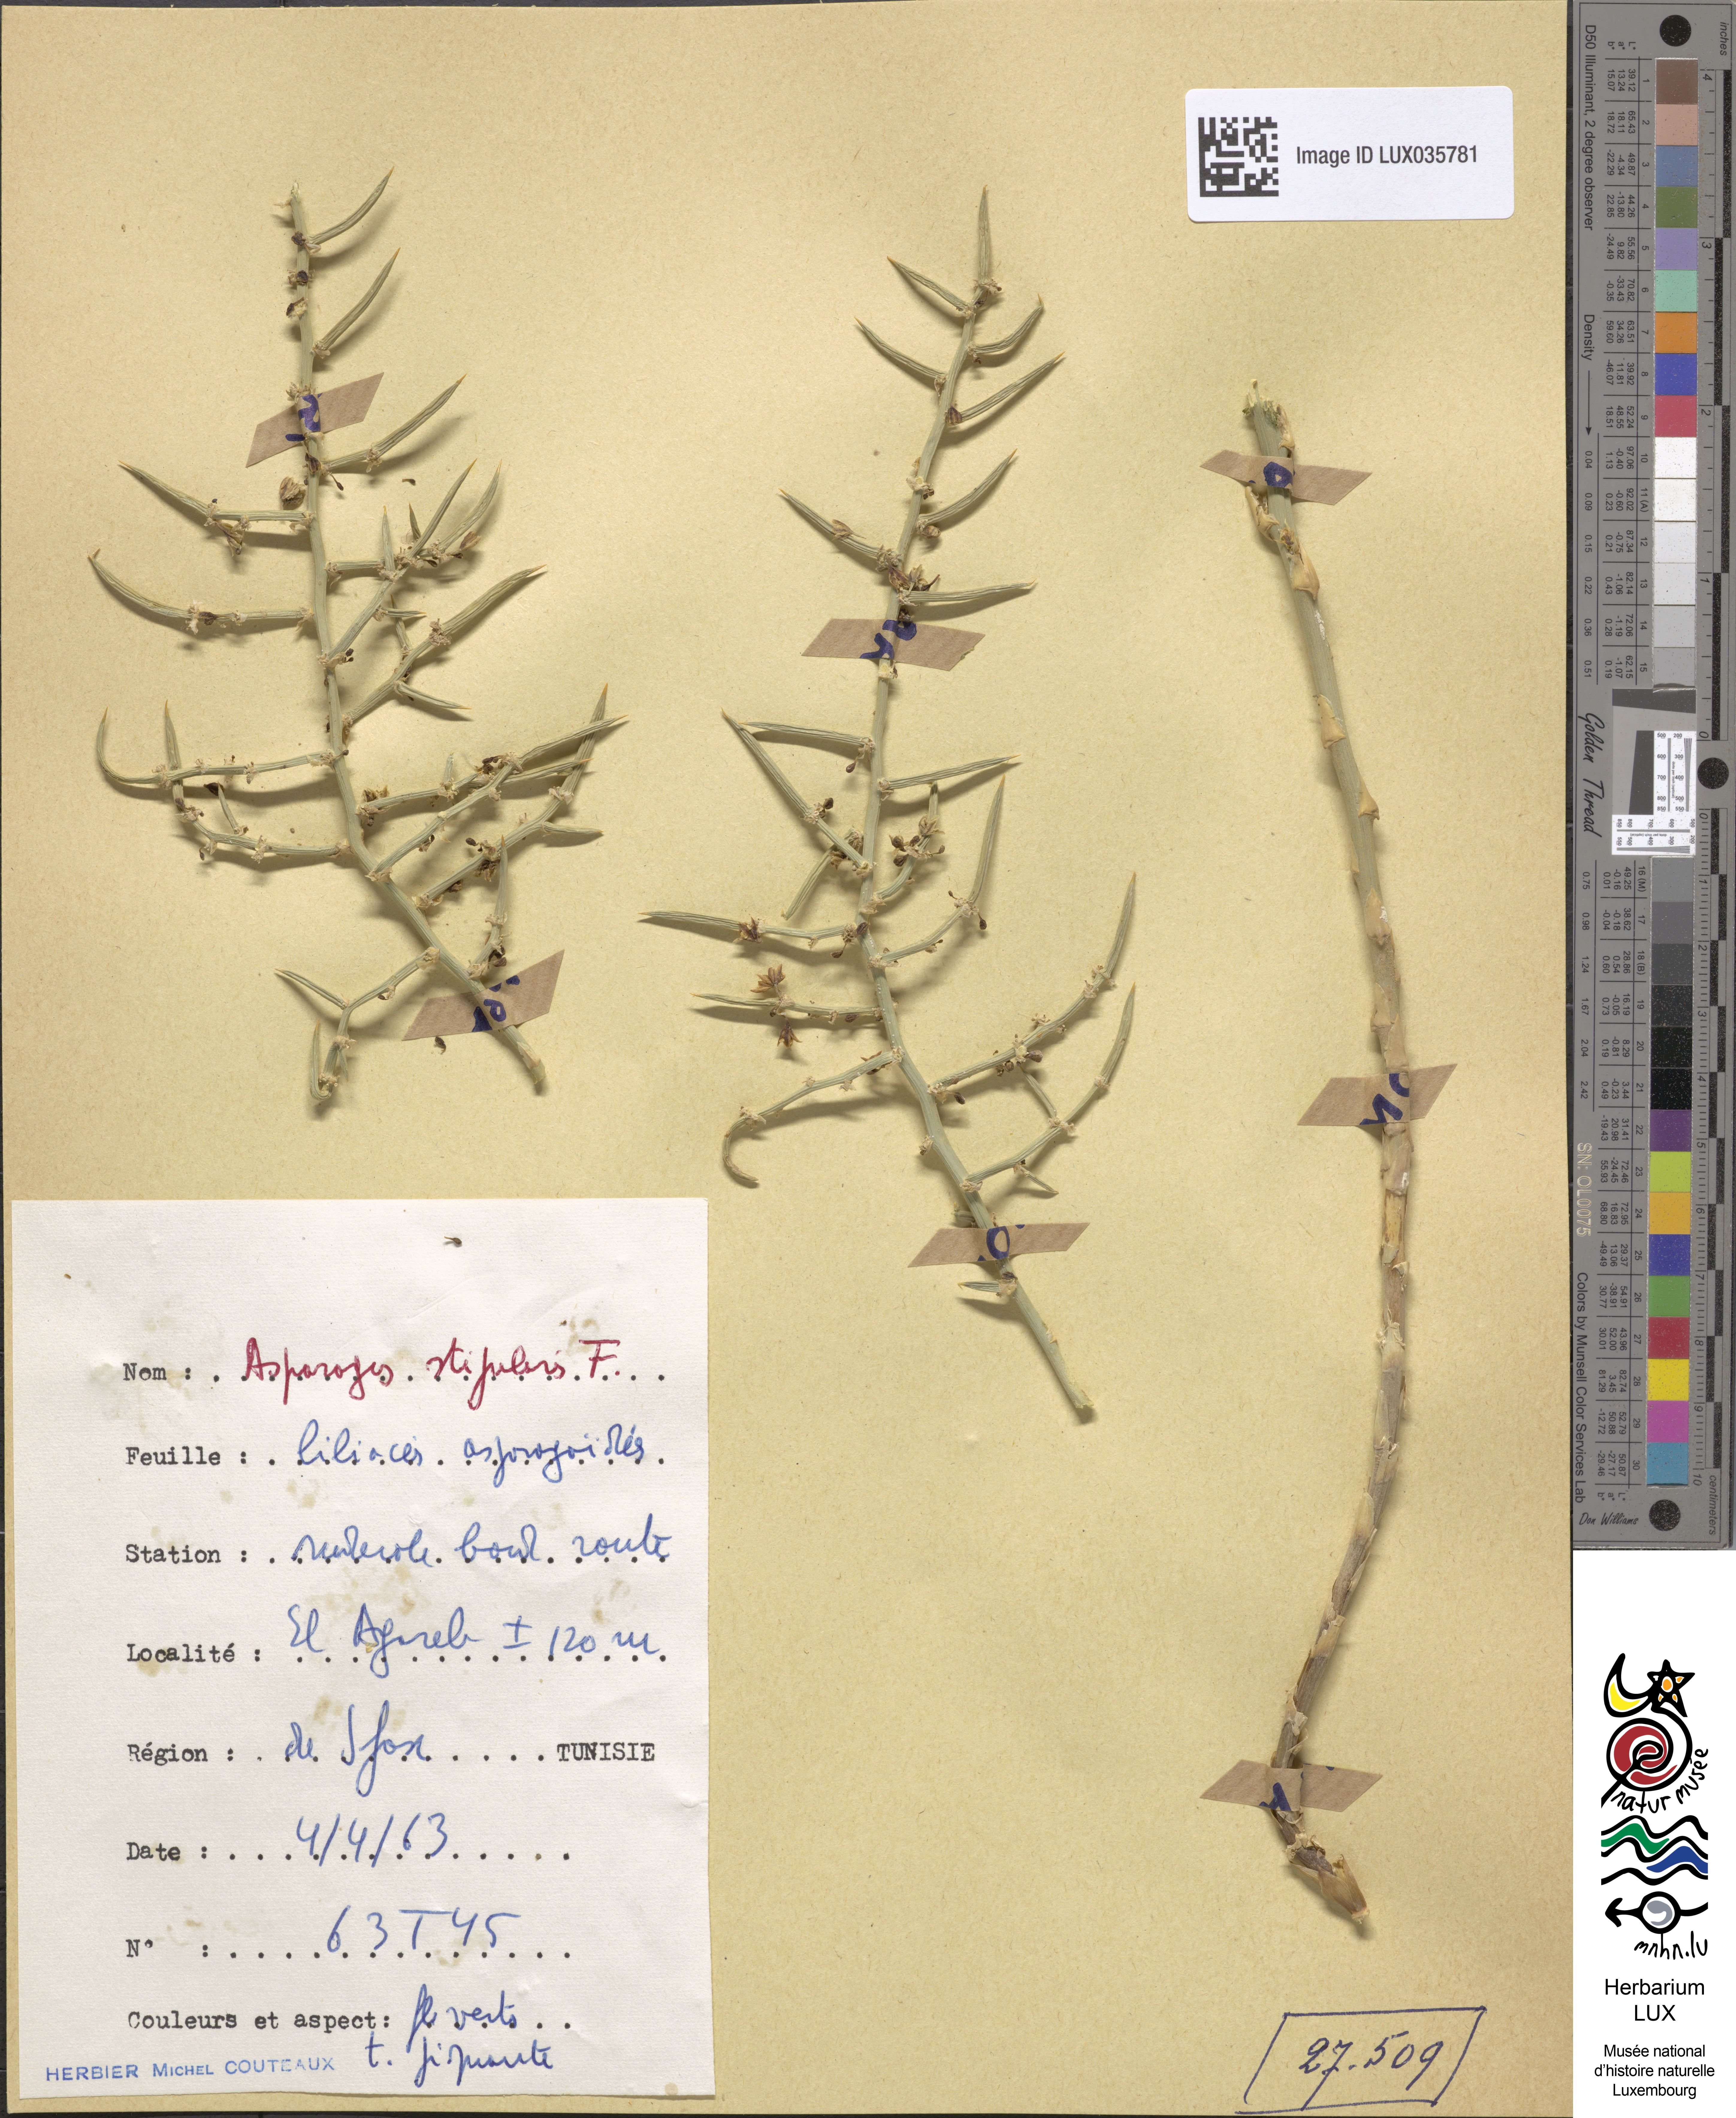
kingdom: Plantae
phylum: Tracheophyta
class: Liliopsida
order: Asparagales
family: Asparagaceae
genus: Asparagus
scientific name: Asparagus horridus
